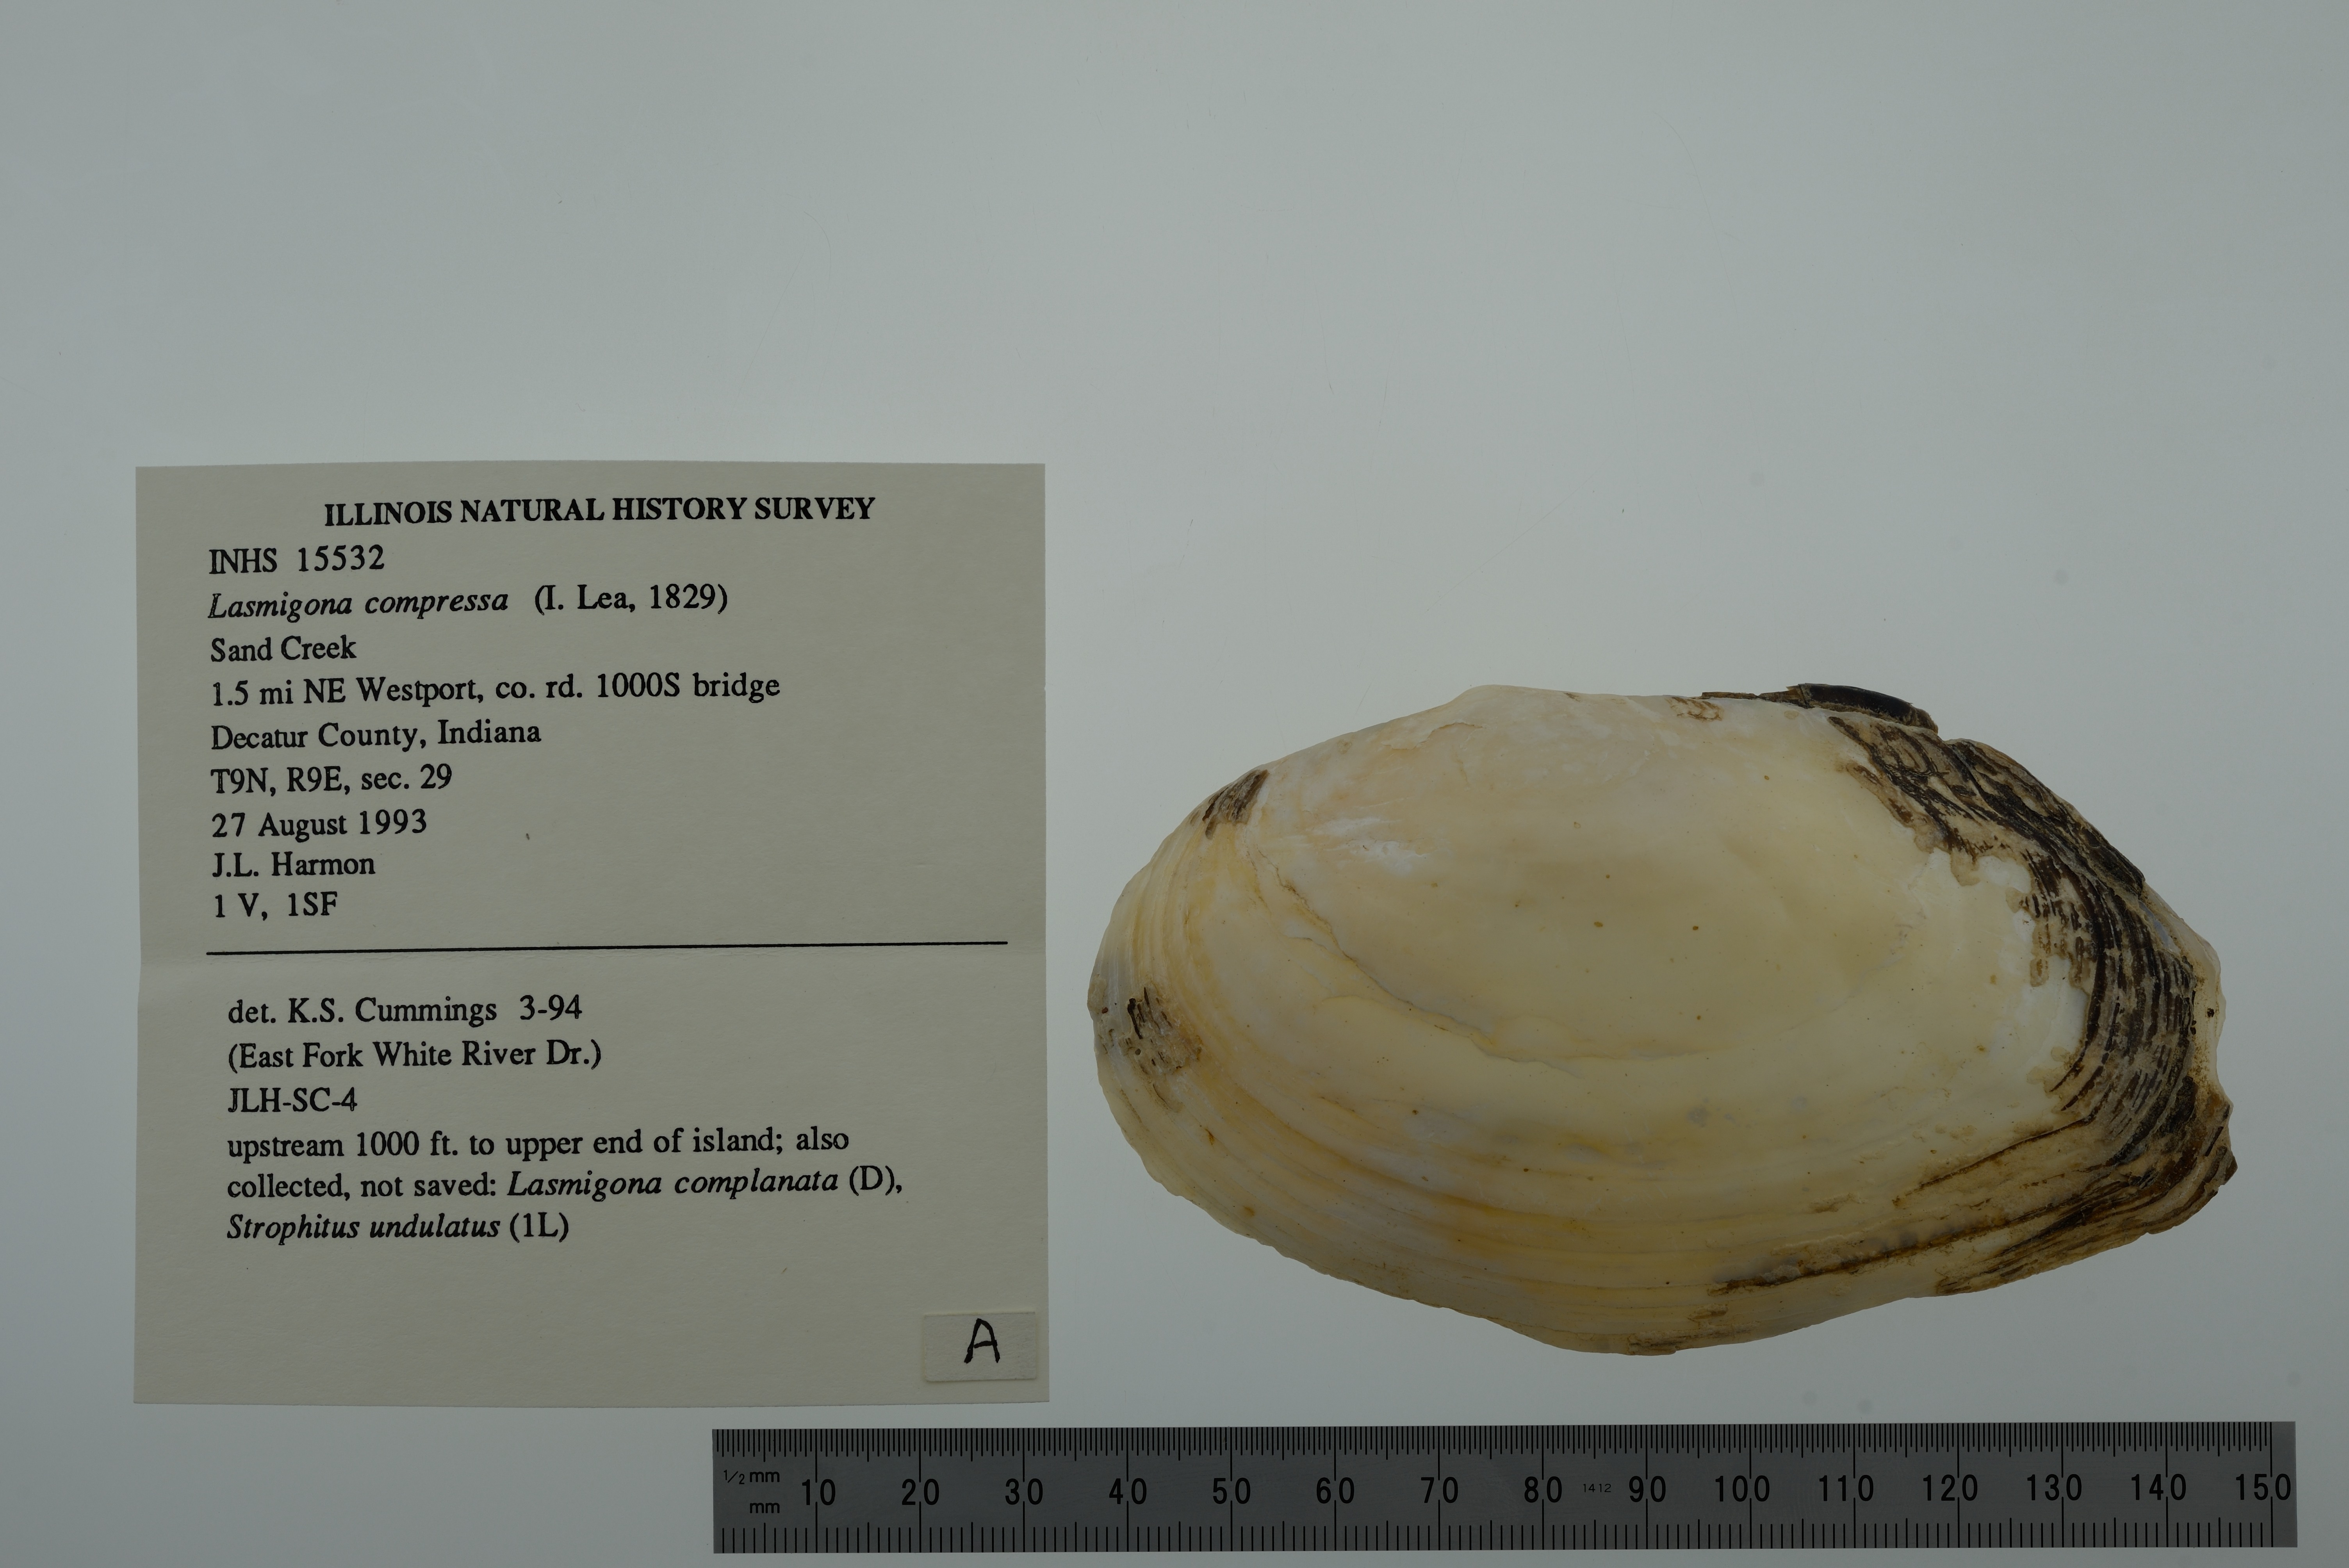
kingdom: Animalia
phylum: Mollusca
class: Bivalvia
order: Unionida
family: Unionidae
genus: Lasmigona
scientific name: Lasmigona compressa
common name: Creek heelsplitter
